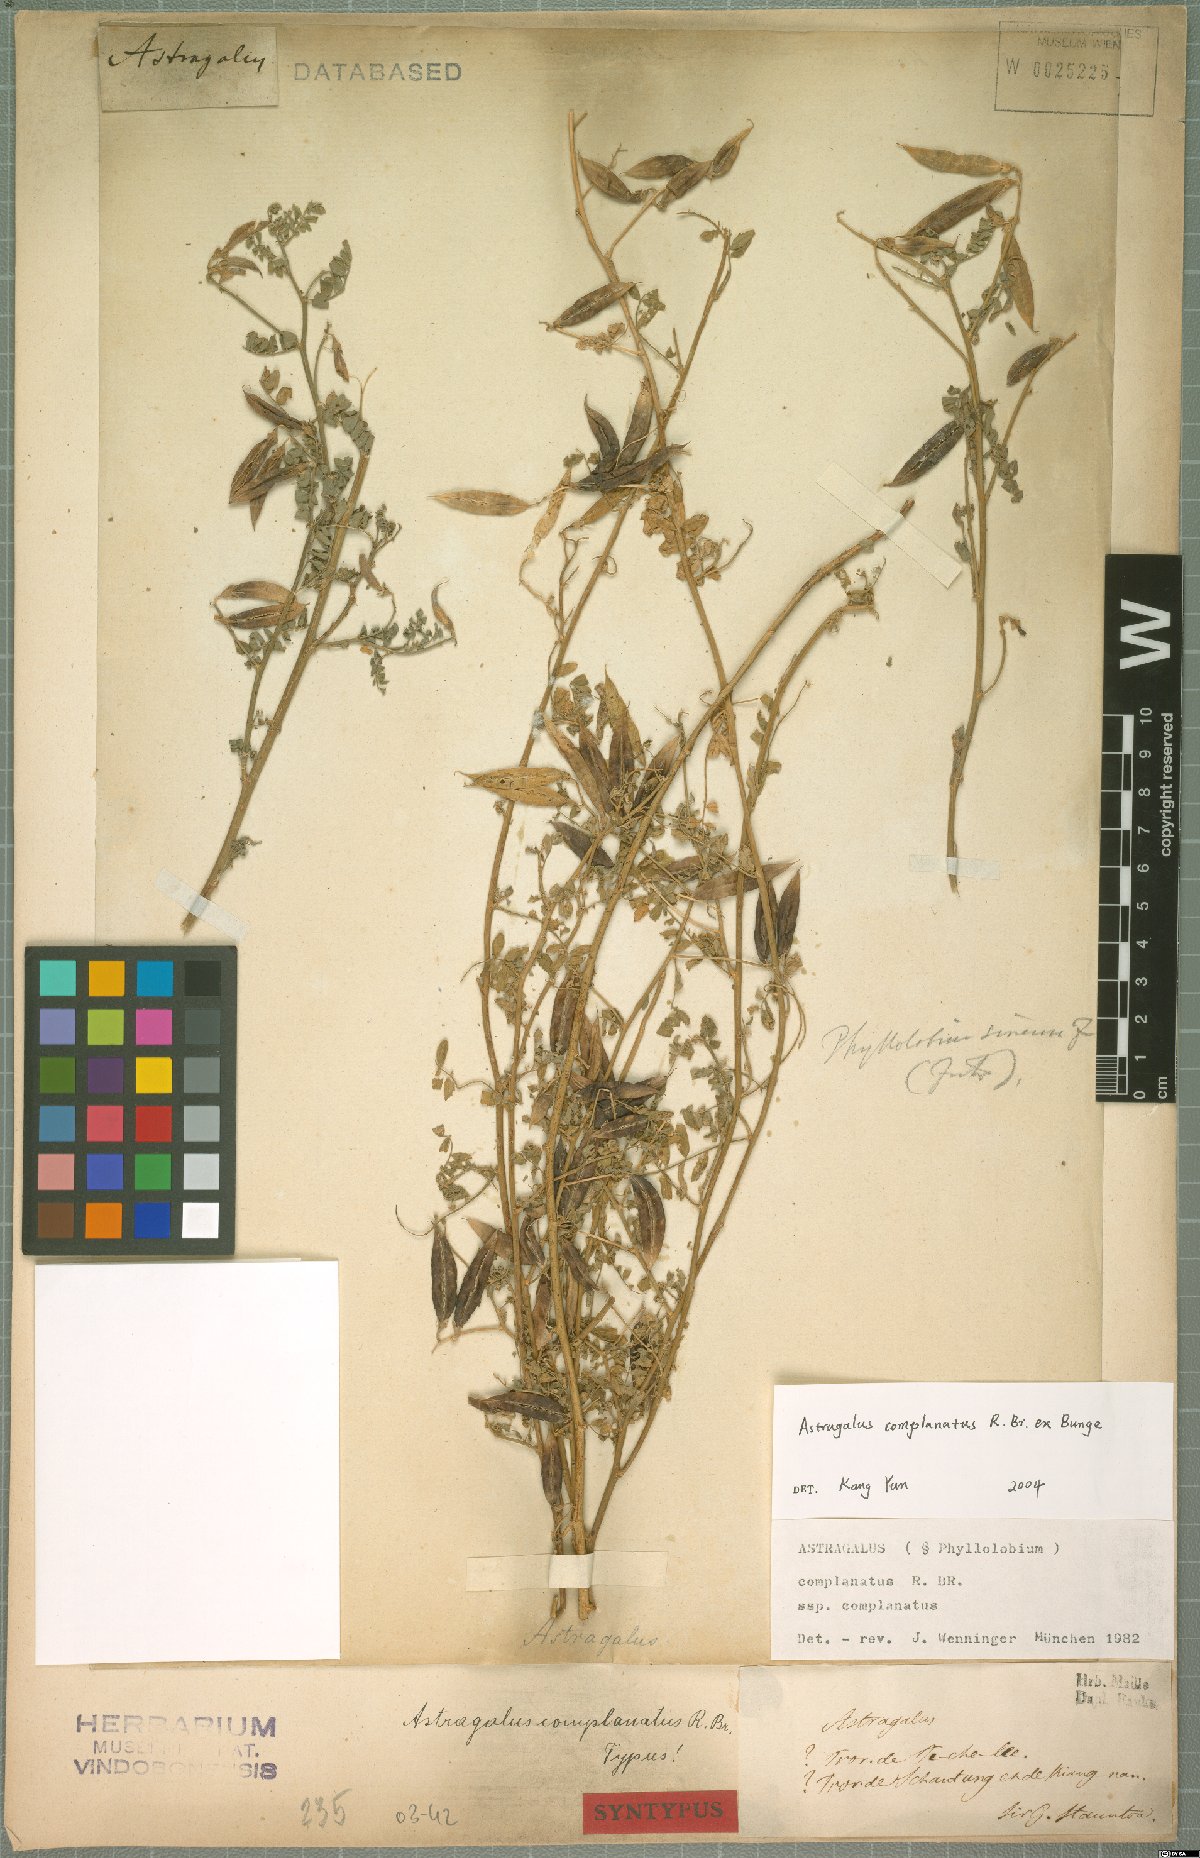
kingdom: Plantae
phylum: Tracheophyta
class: Magnoliopsida
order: Fabales
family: Fabaceae
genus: Phyllolobium
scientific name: Phyllolobium chinense
